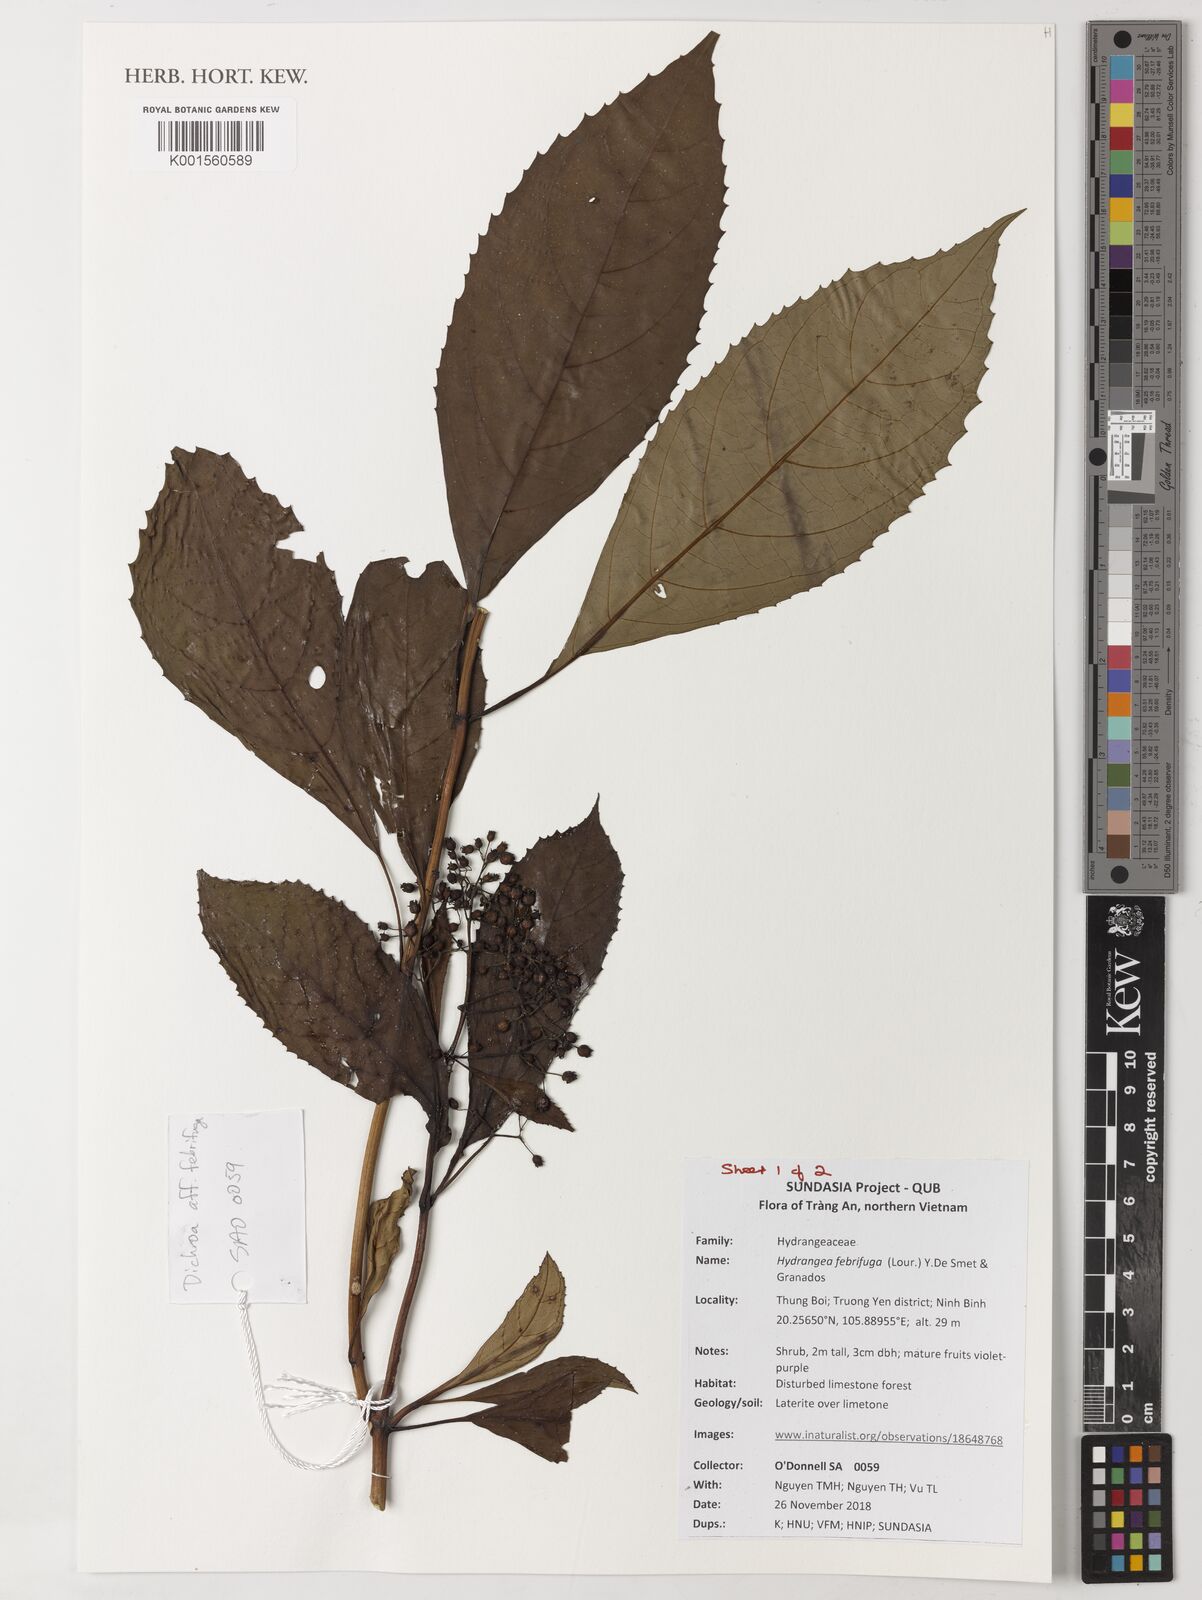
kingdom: Plantae
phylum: Tracheophyta
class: Magnoliopsida
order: Cornales
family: Hydrangeaceae
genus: Hydrangea
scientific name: Hydrangea febrifuga
